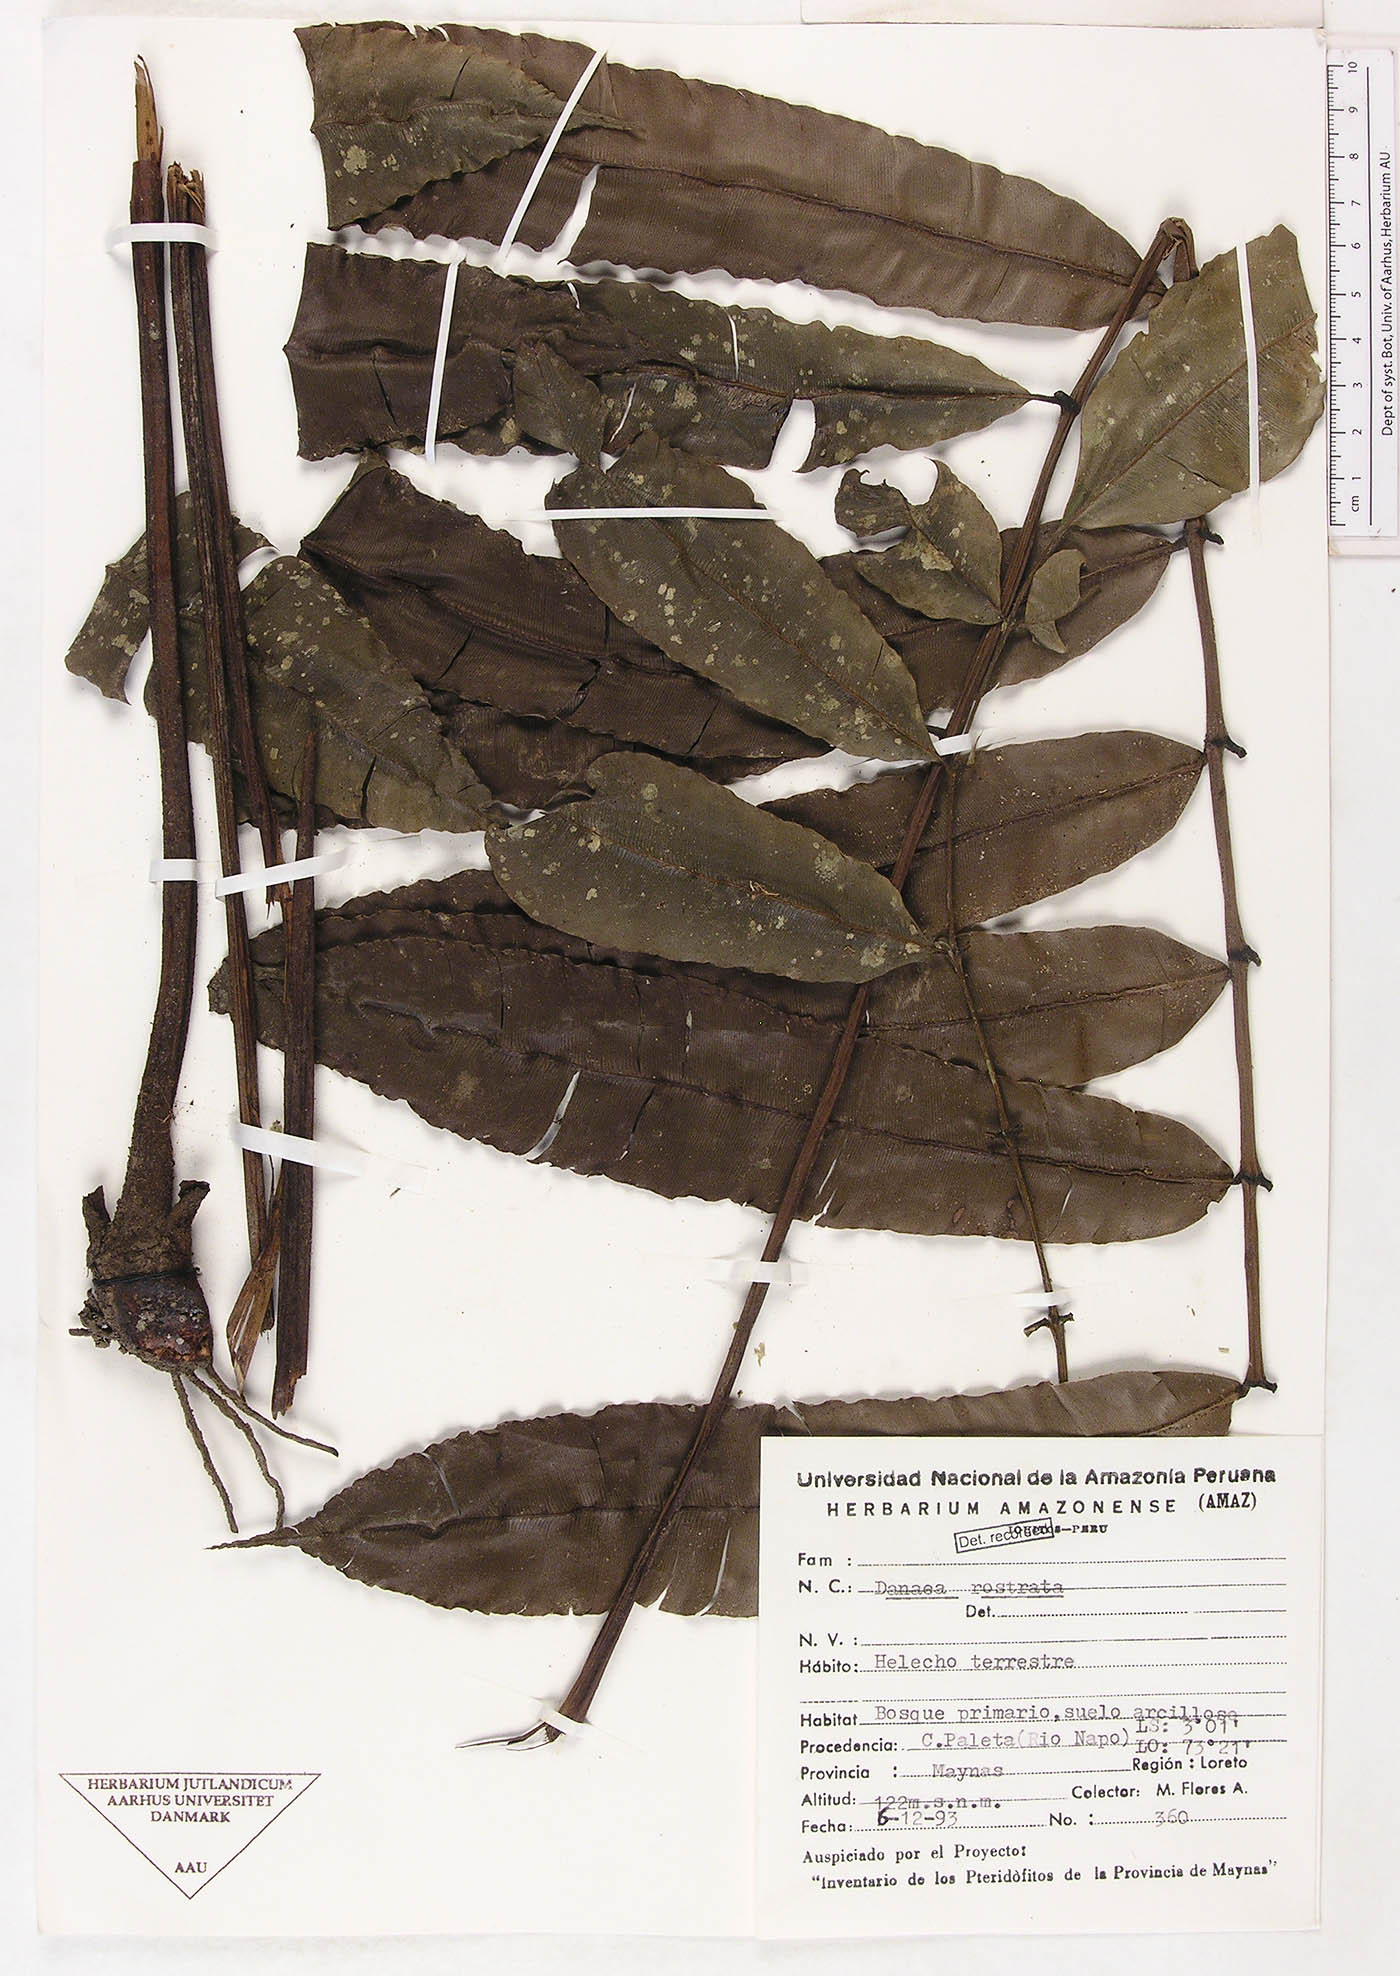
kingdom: Plantae
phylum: Tracheophyta
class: Polypodiopsida
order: Marattiales
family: Marattiaceae
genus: Danaea
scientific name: Danaea
